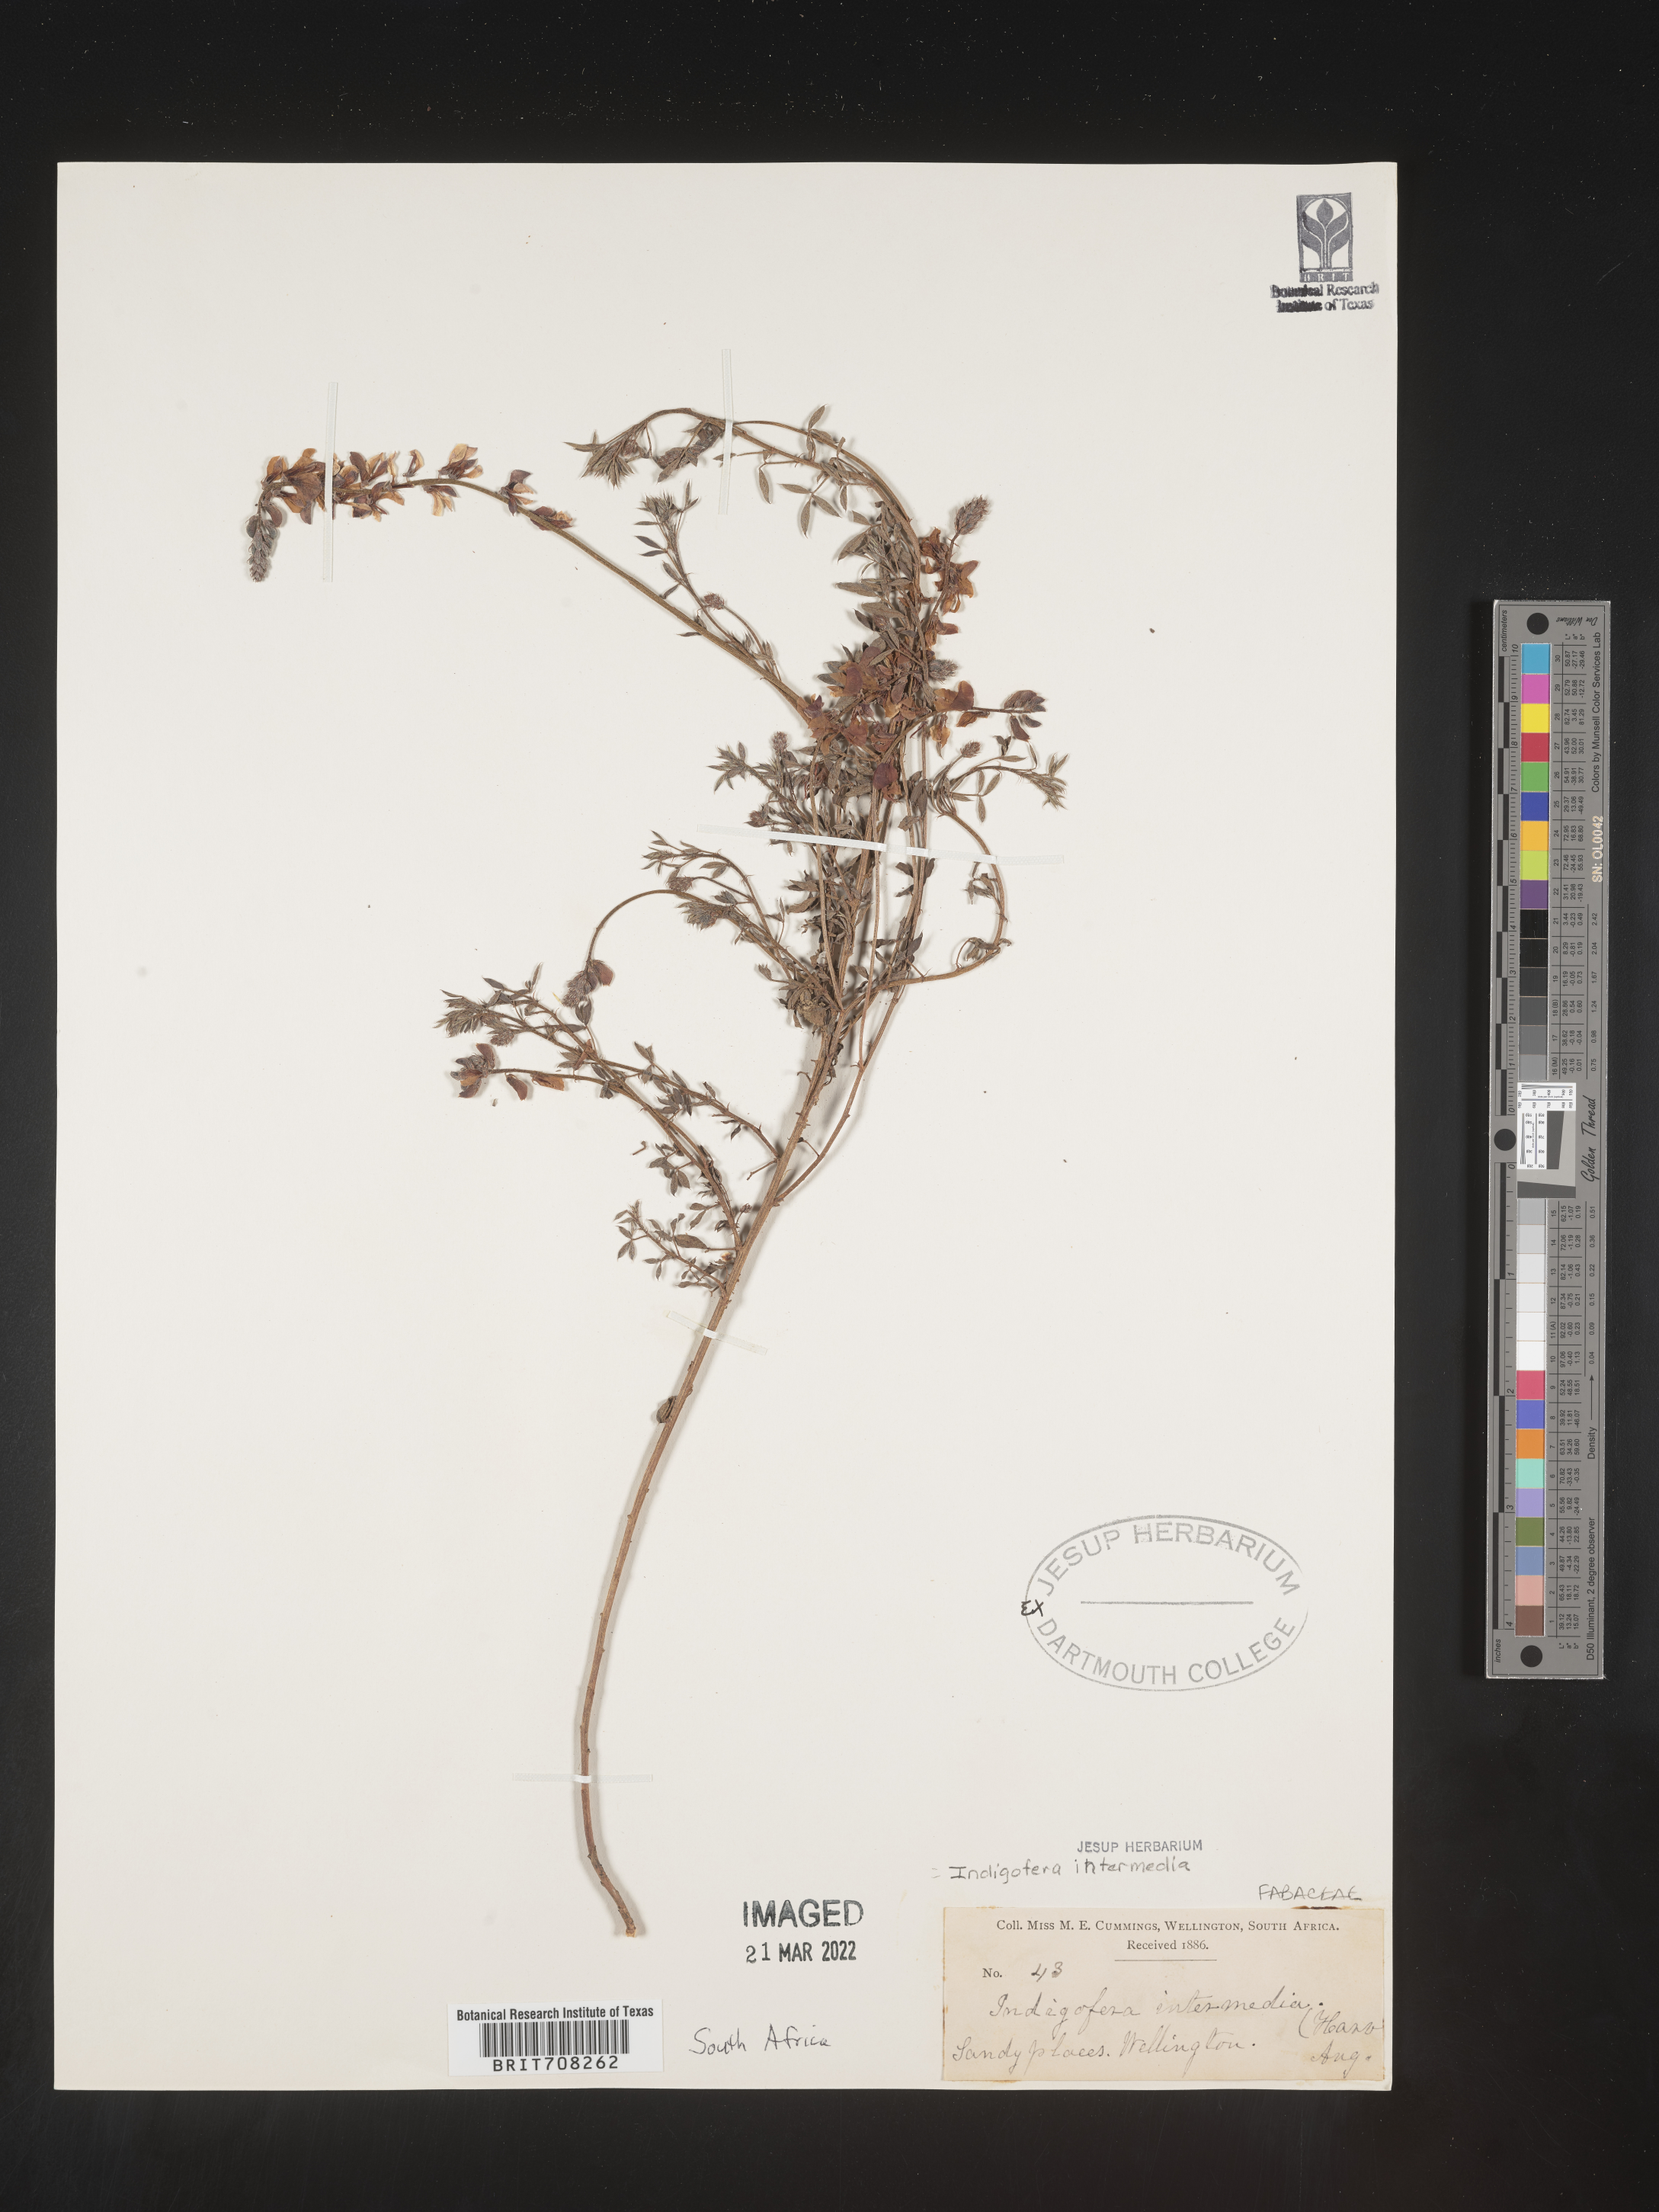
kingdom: Plantae
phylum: Tracheophyta
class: Magnoliopsida
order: Fabales
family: Fabaceae
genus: Indigofera
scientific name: Indigofera
